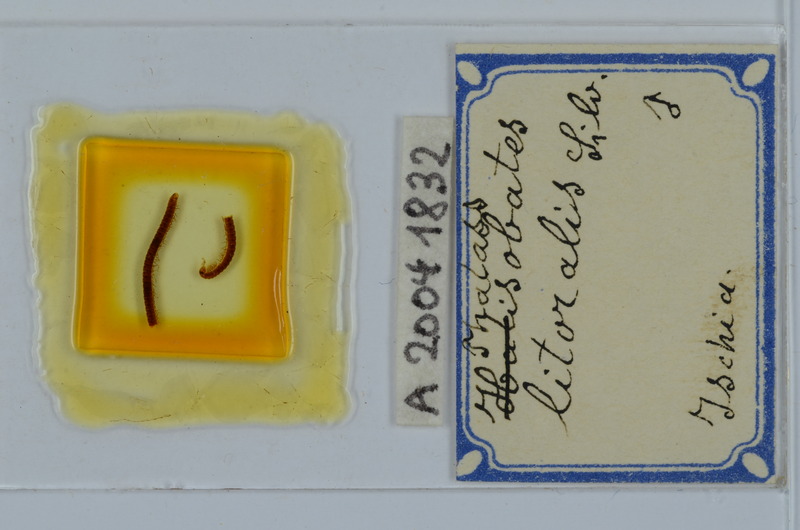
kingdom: Animalia
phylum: Arthropoda
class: Diplopoda
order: Julida
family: Nemasomatidae
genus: Thalassisobates
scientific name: Thalassisobates littoralis
